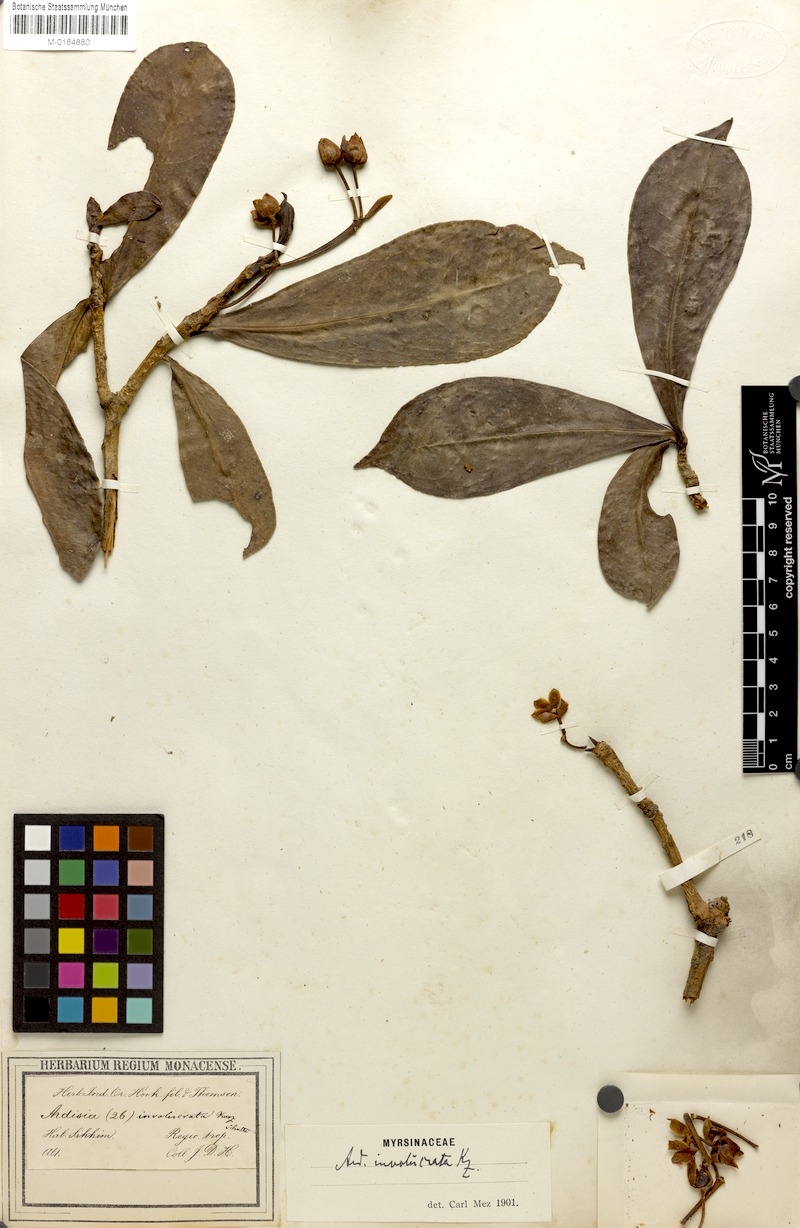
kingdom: Plantae
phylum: Tracheophyta
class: Magnoliopsida
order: Ericales
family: Primulaceae
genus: Ardisia
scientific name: Ardisia involucrata
